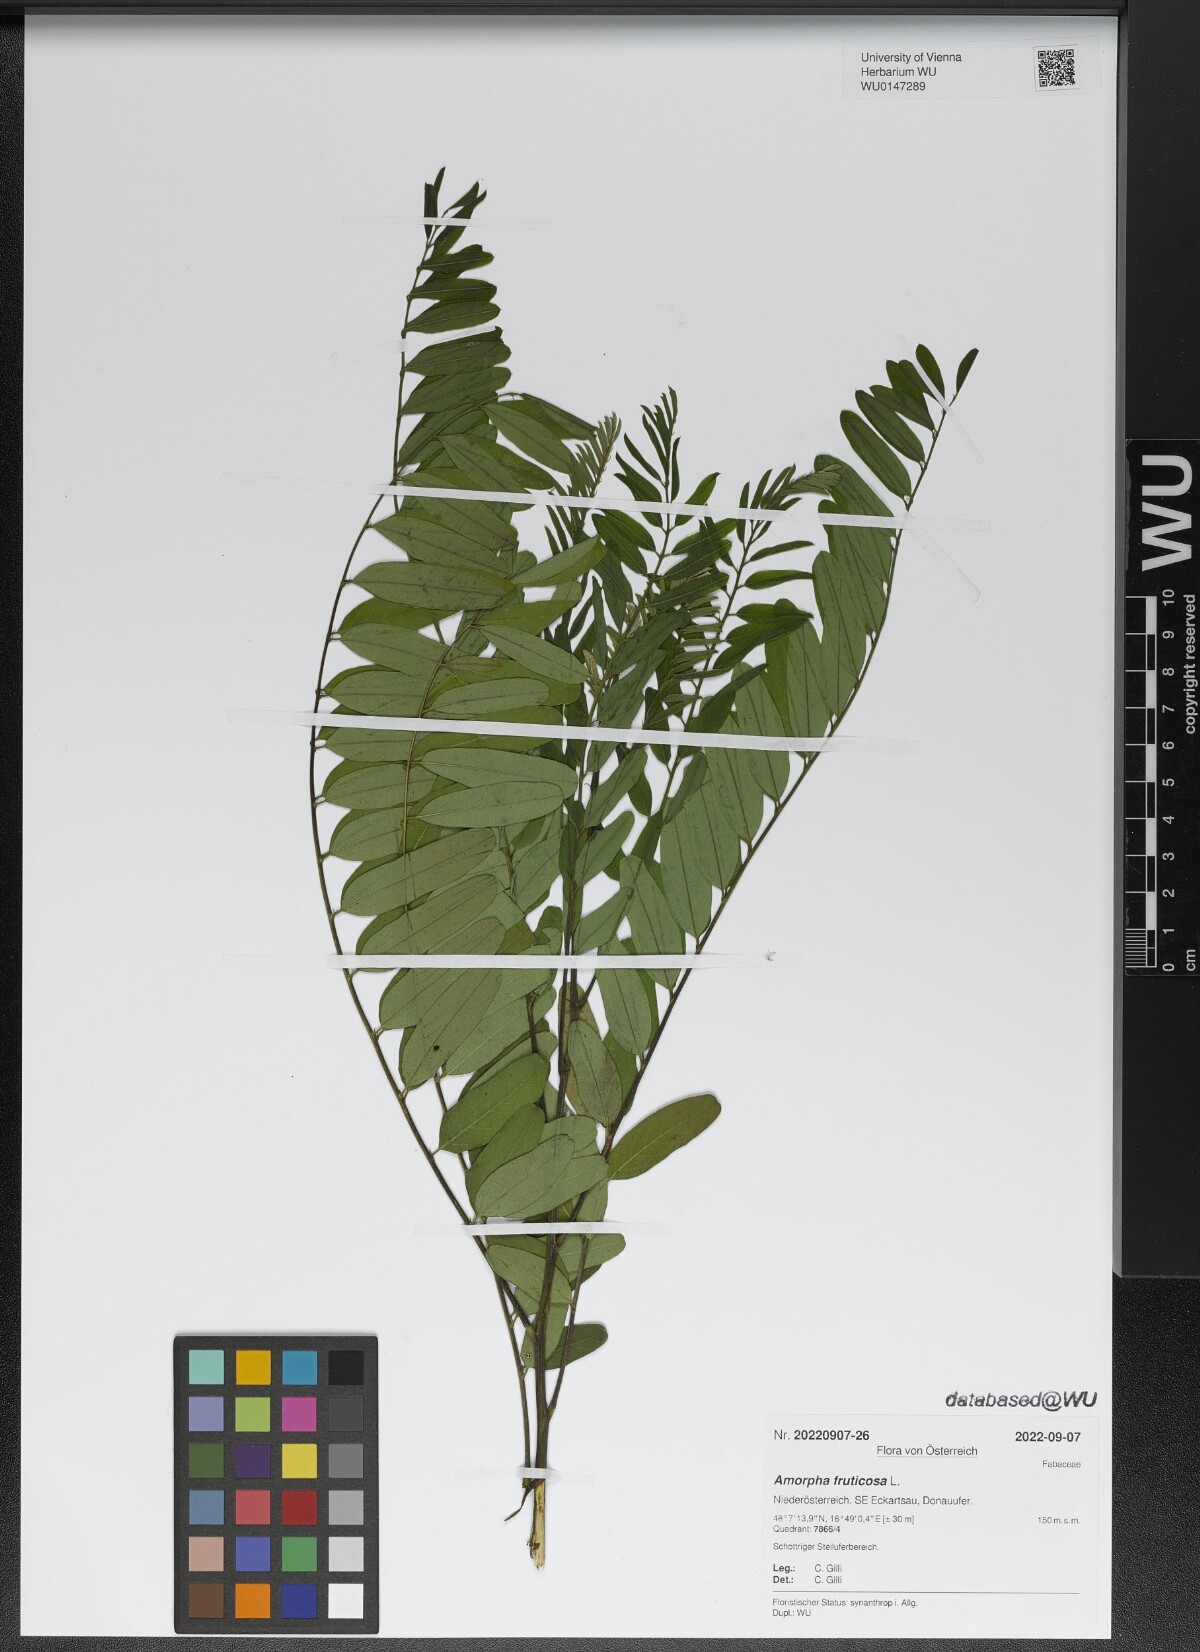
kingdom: Plantae
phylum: Tracheophyta
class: Magnoliopsida
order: Fabales
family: Fabaceae
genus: Amorpha
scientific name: Amorpha fruticosa
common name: False indigo
